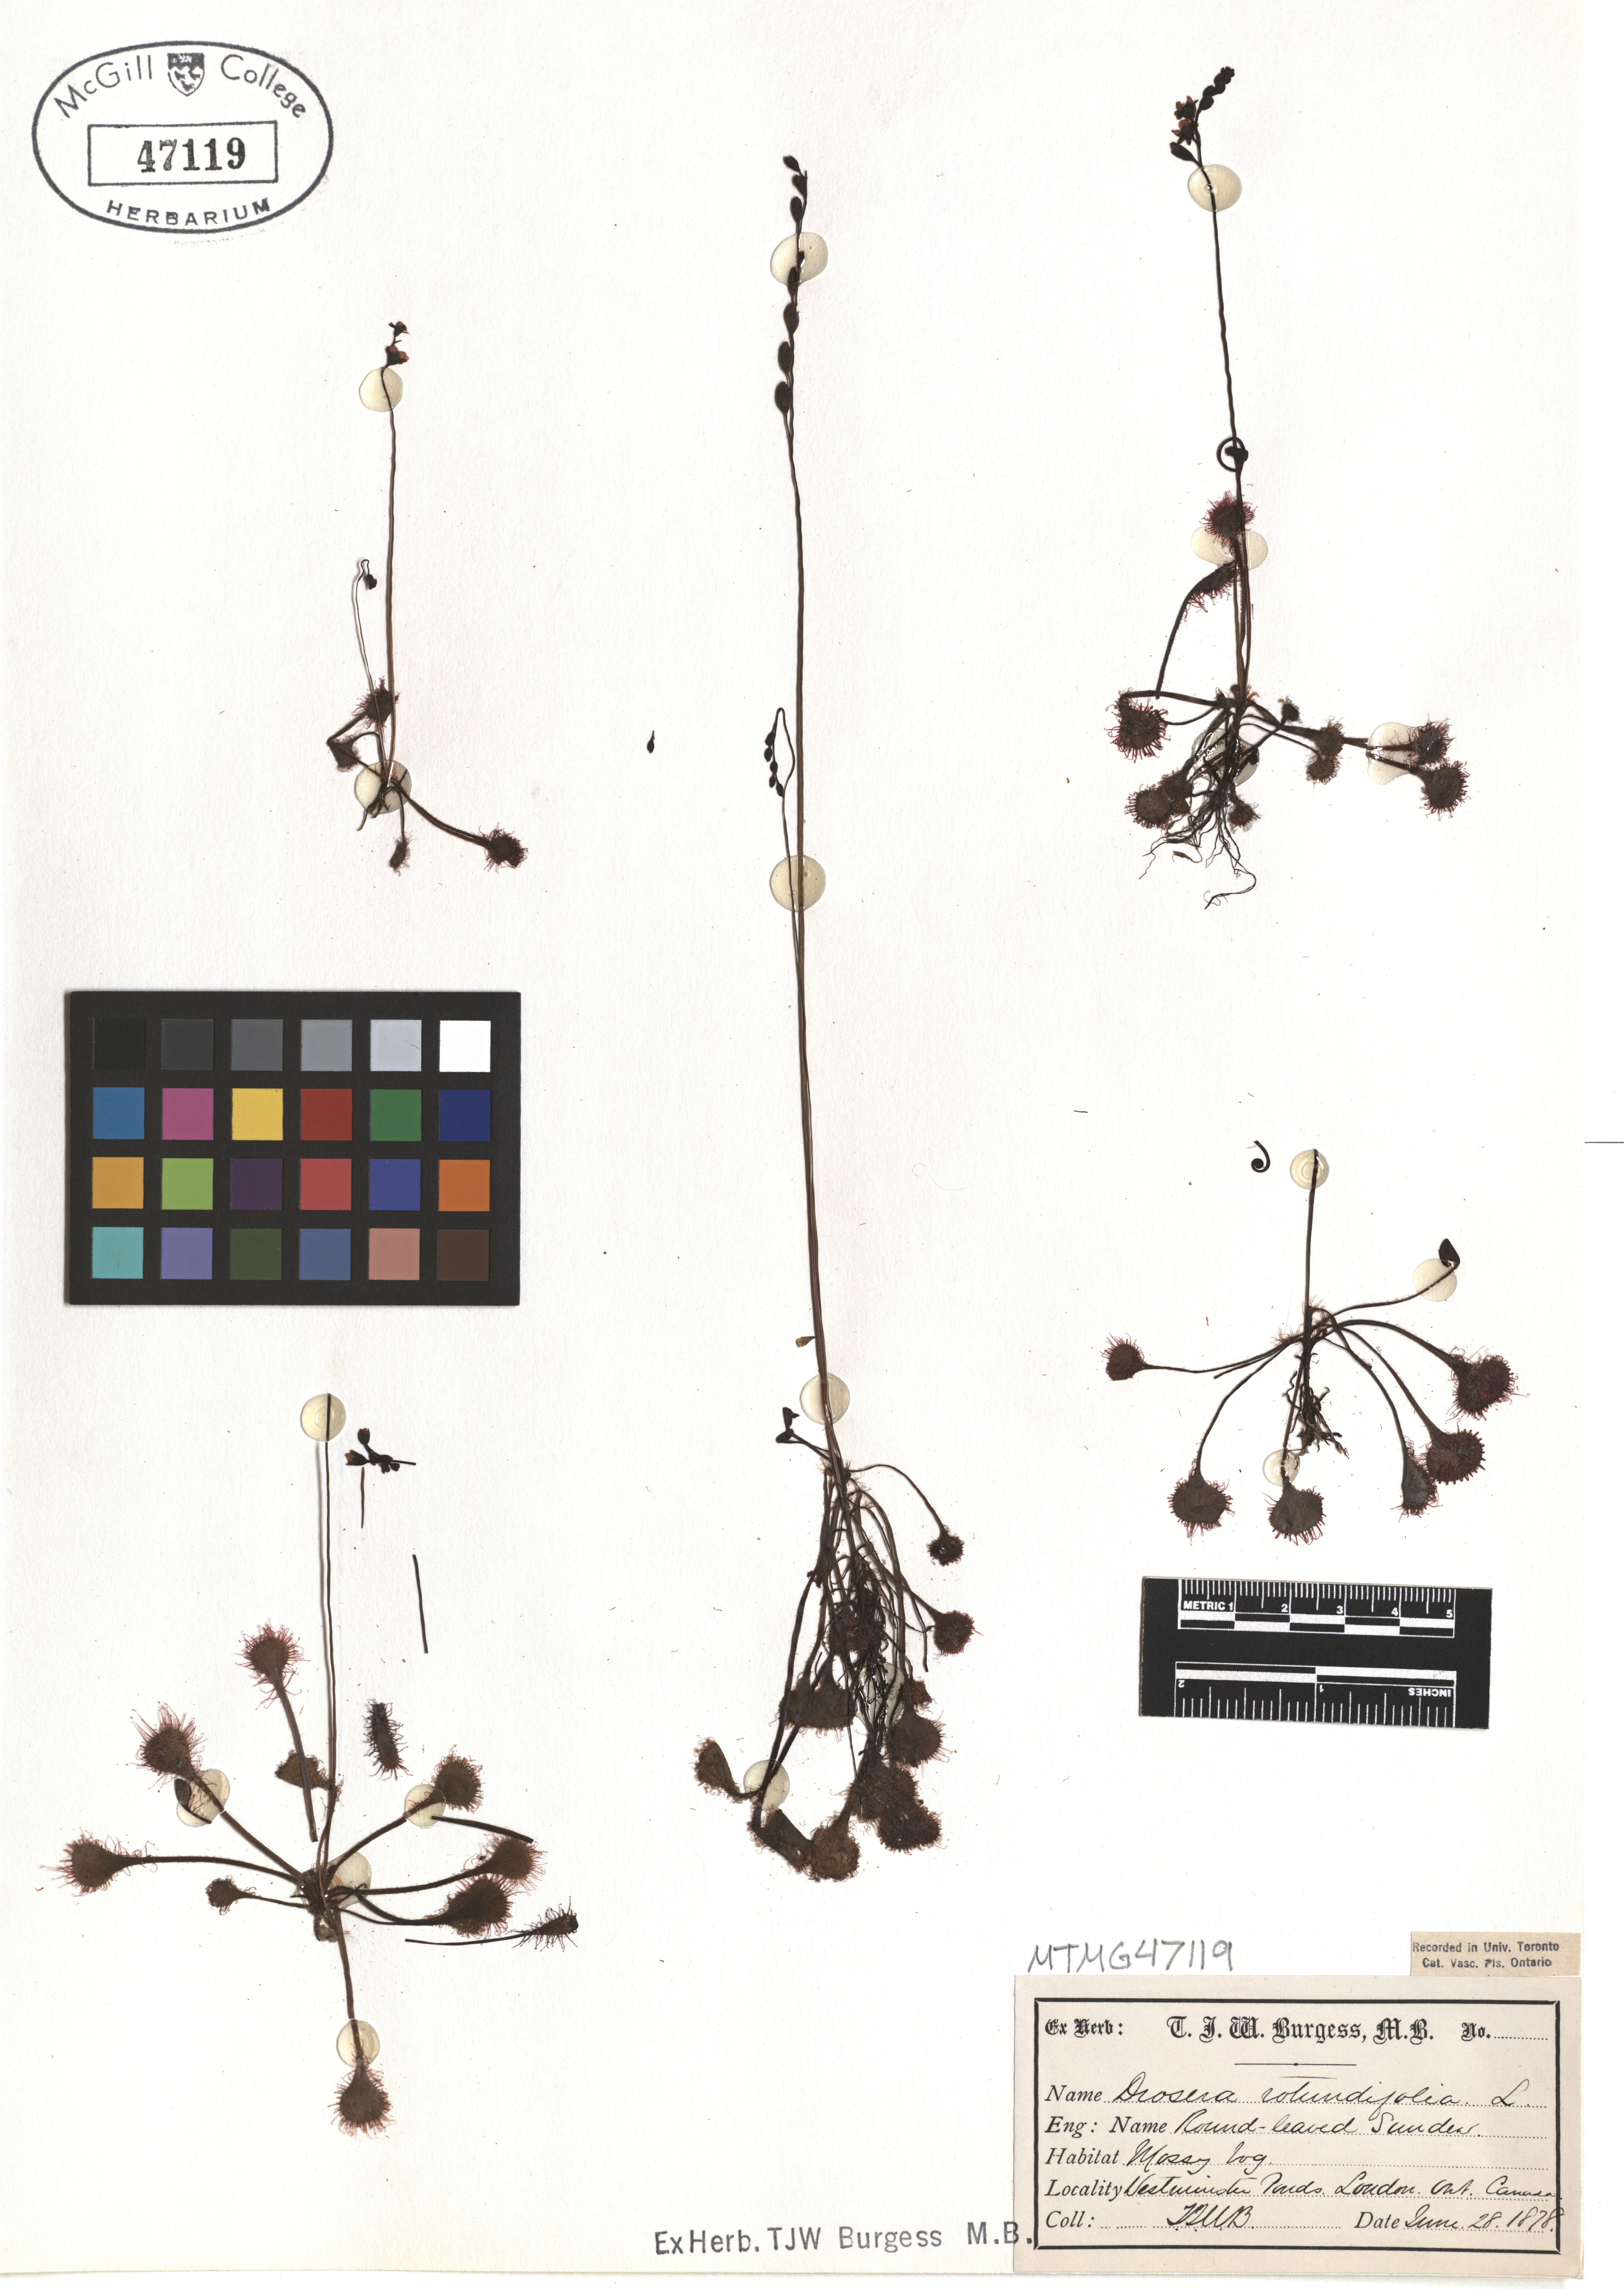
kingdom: Plantae
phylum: Tracheophyta
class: Magnoliopsida
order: Caryophyllales
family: Droseraceae
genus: Drosera
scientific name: Drosera rotundifolia
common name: Round-leaved sundew
